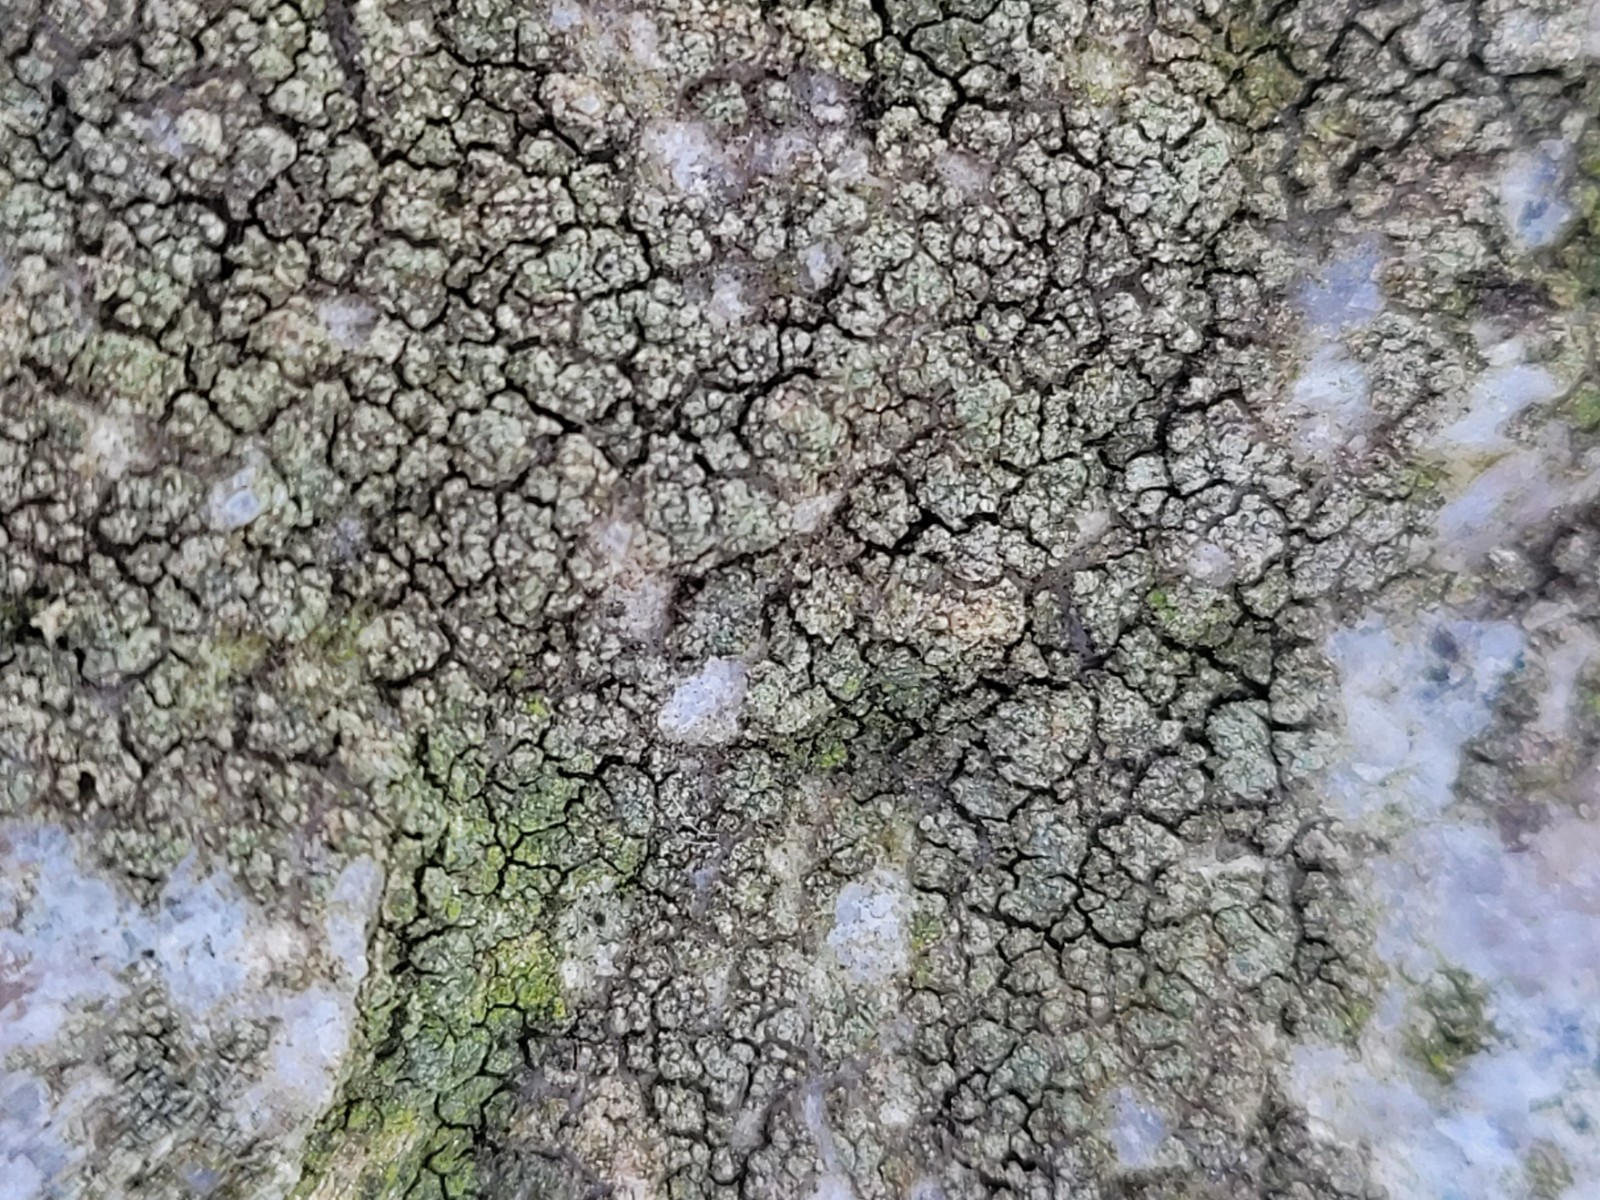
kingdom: Fungi
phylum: Ascomycota
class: Lecanoromycetes
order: Lecanorales
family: Parmeliaceae
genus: Lichen
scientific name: Lichen
